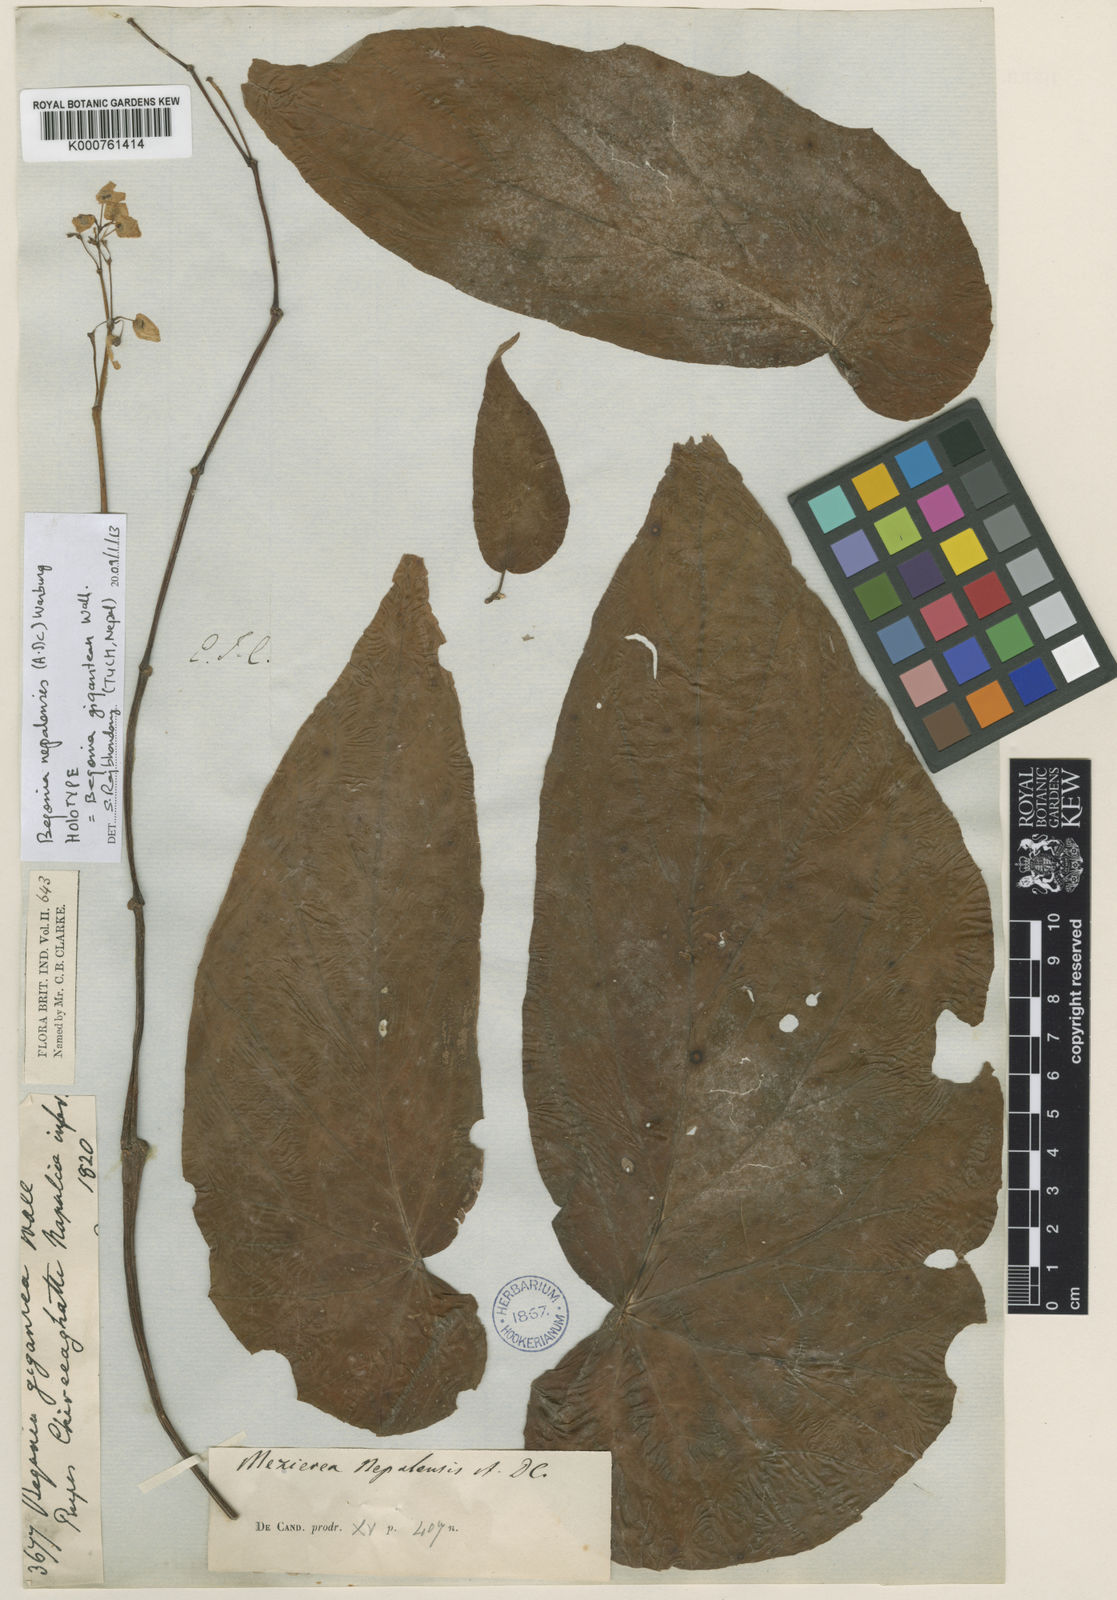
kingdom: Plantae
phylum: Tracheophyta
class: Magnoliopsida
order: Cucurbitales
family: Begoniaceae
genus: Begonia
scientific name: Begonia nepalensis
